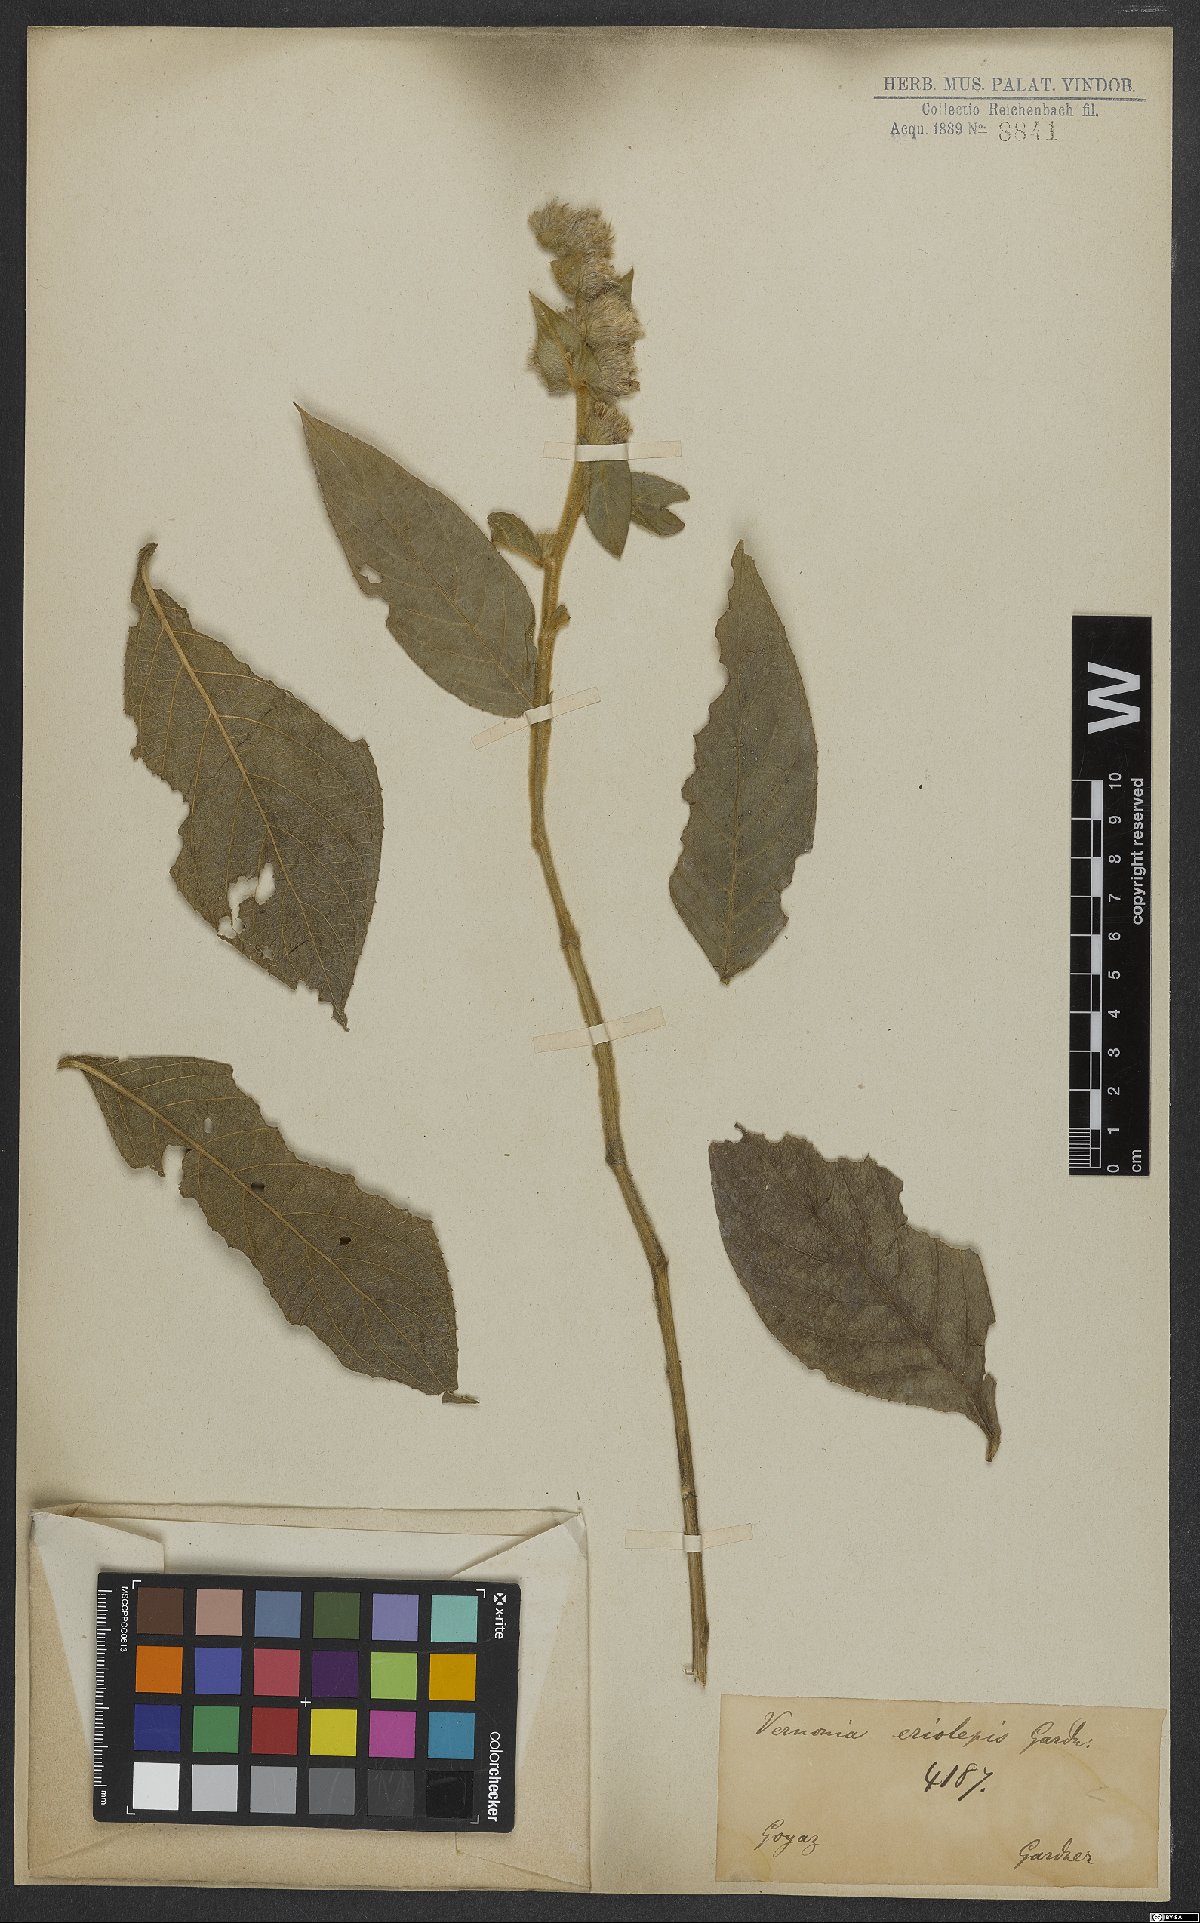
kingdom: Plantae
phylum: Tracheophyta
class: Magnoliopsida
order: Asterales
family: Asteraceae
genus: Lepidaploa
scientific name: Lepidaploa eriolepis
